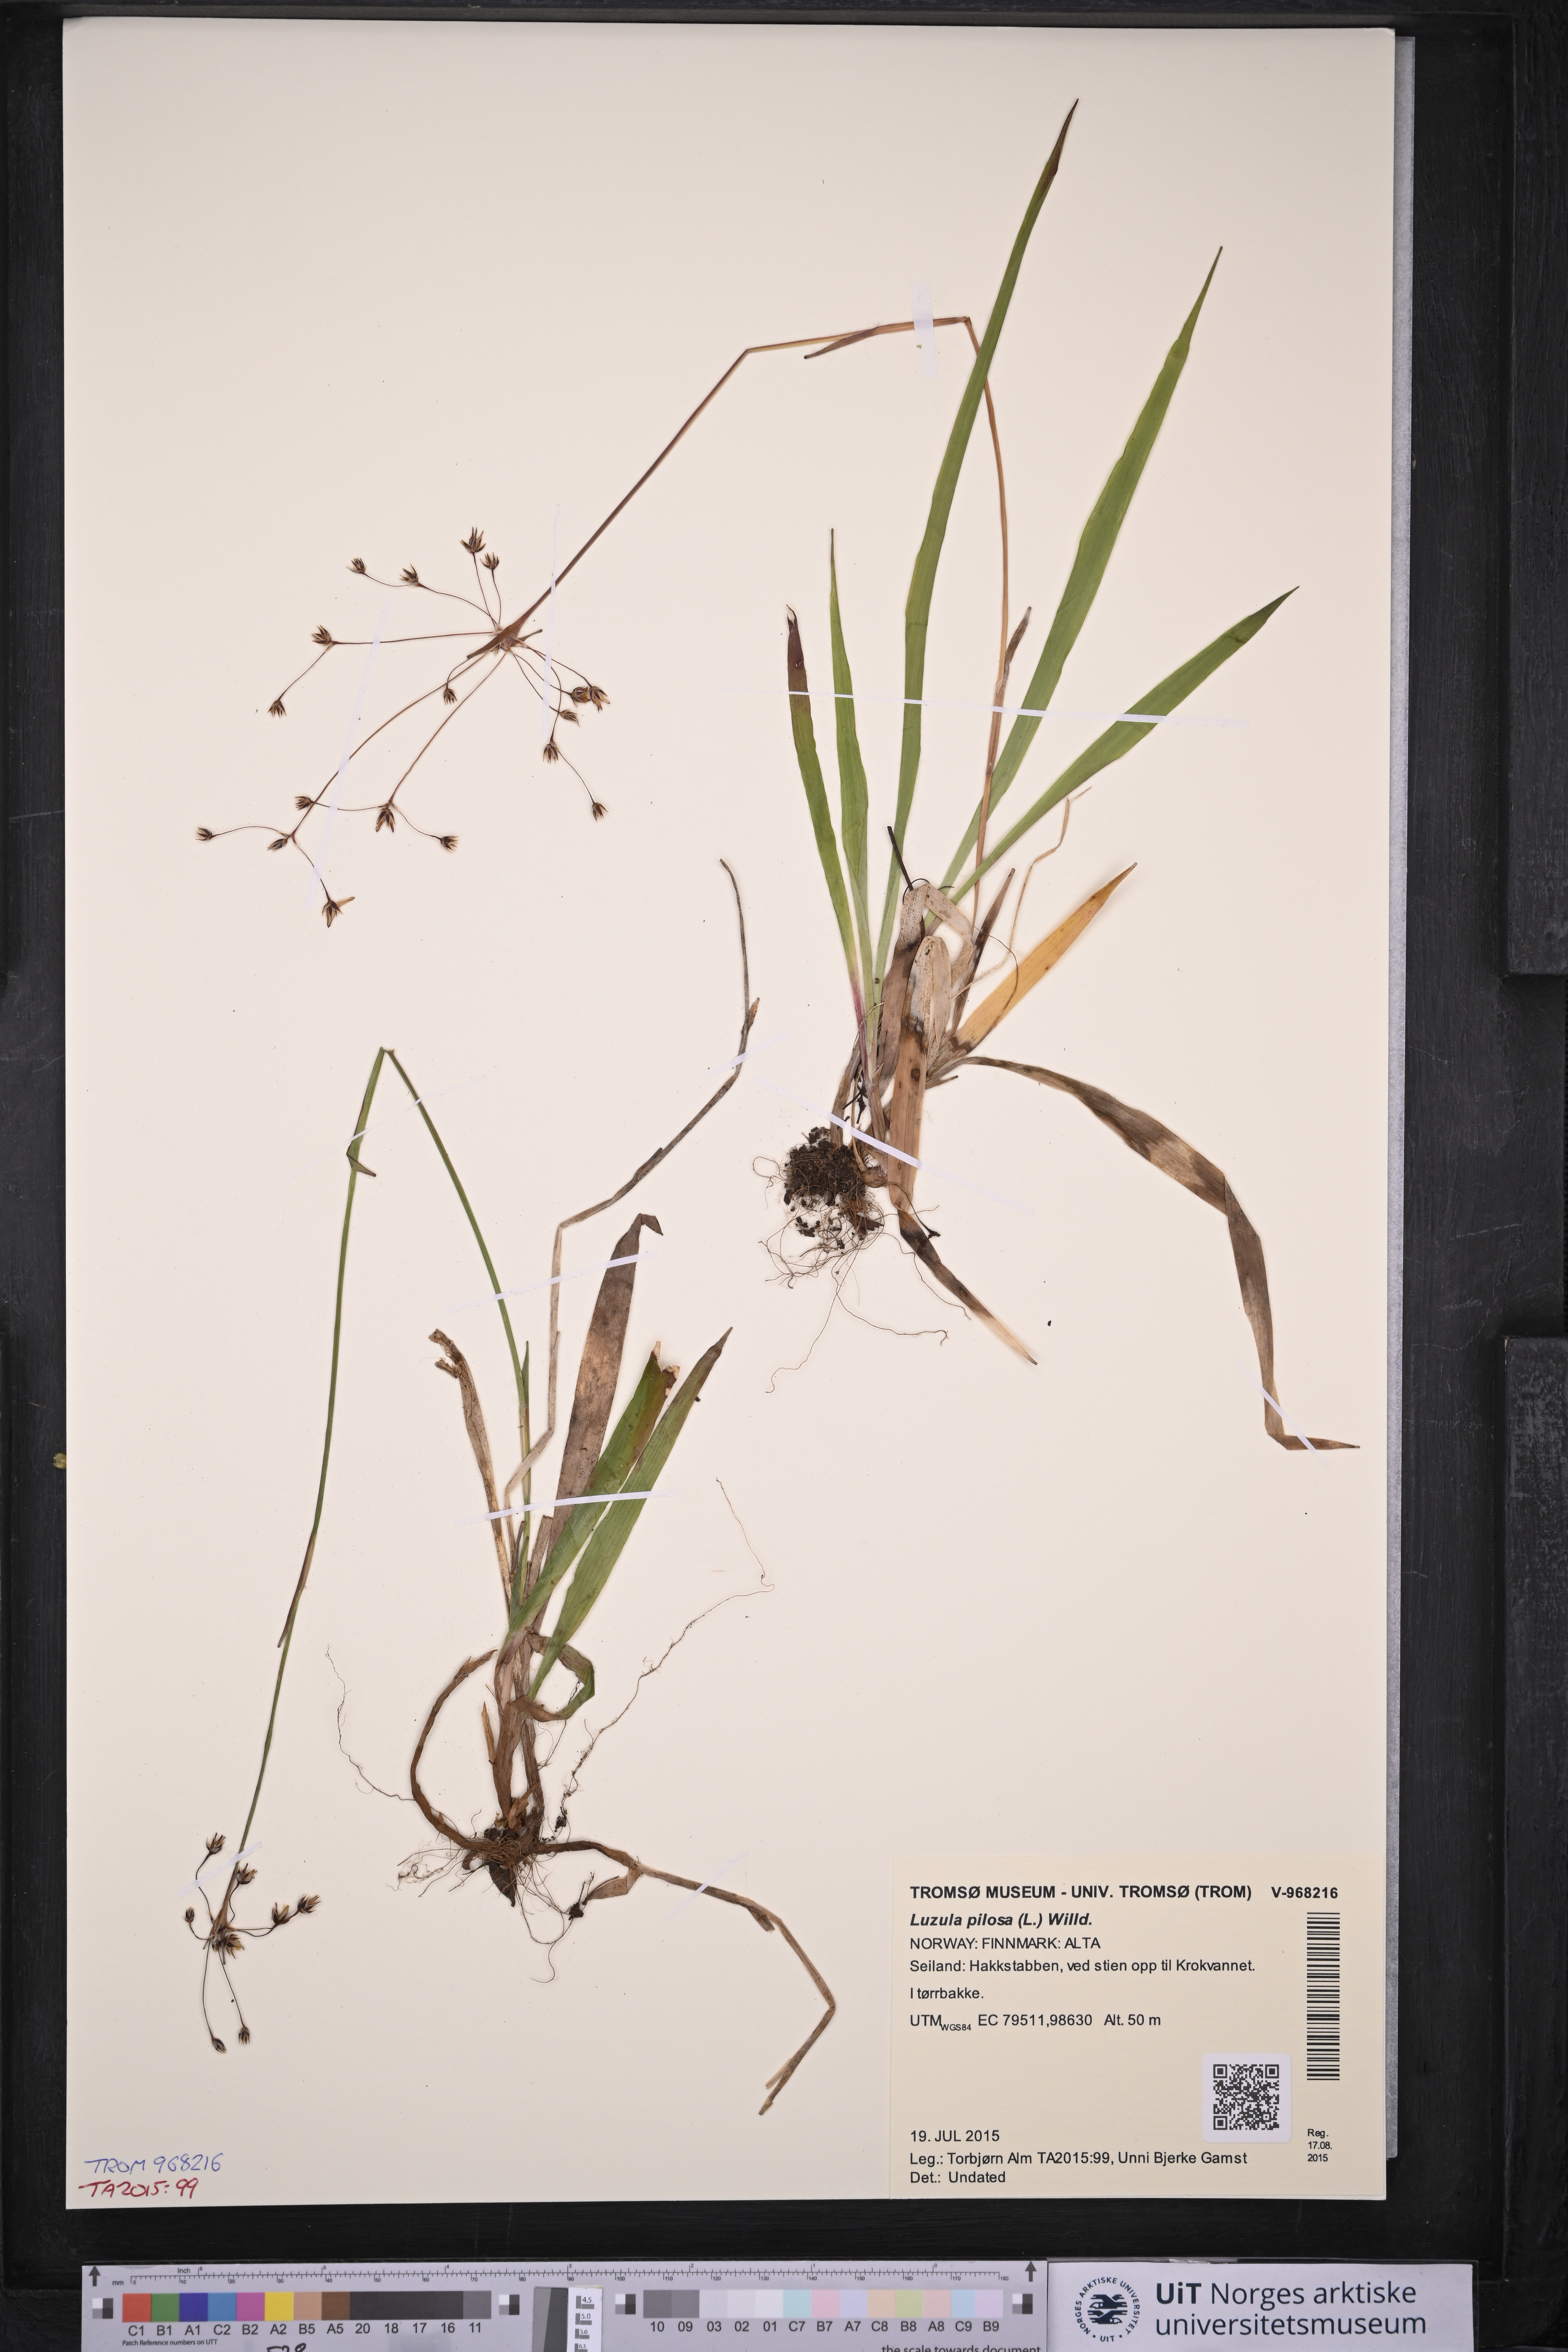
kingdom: Plantae
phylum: Tracheophyta
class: Liliopsida
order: Poales
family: Juncaceae
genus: Luzula
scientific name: Luzula pilosa
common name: Hairy wood-rush
